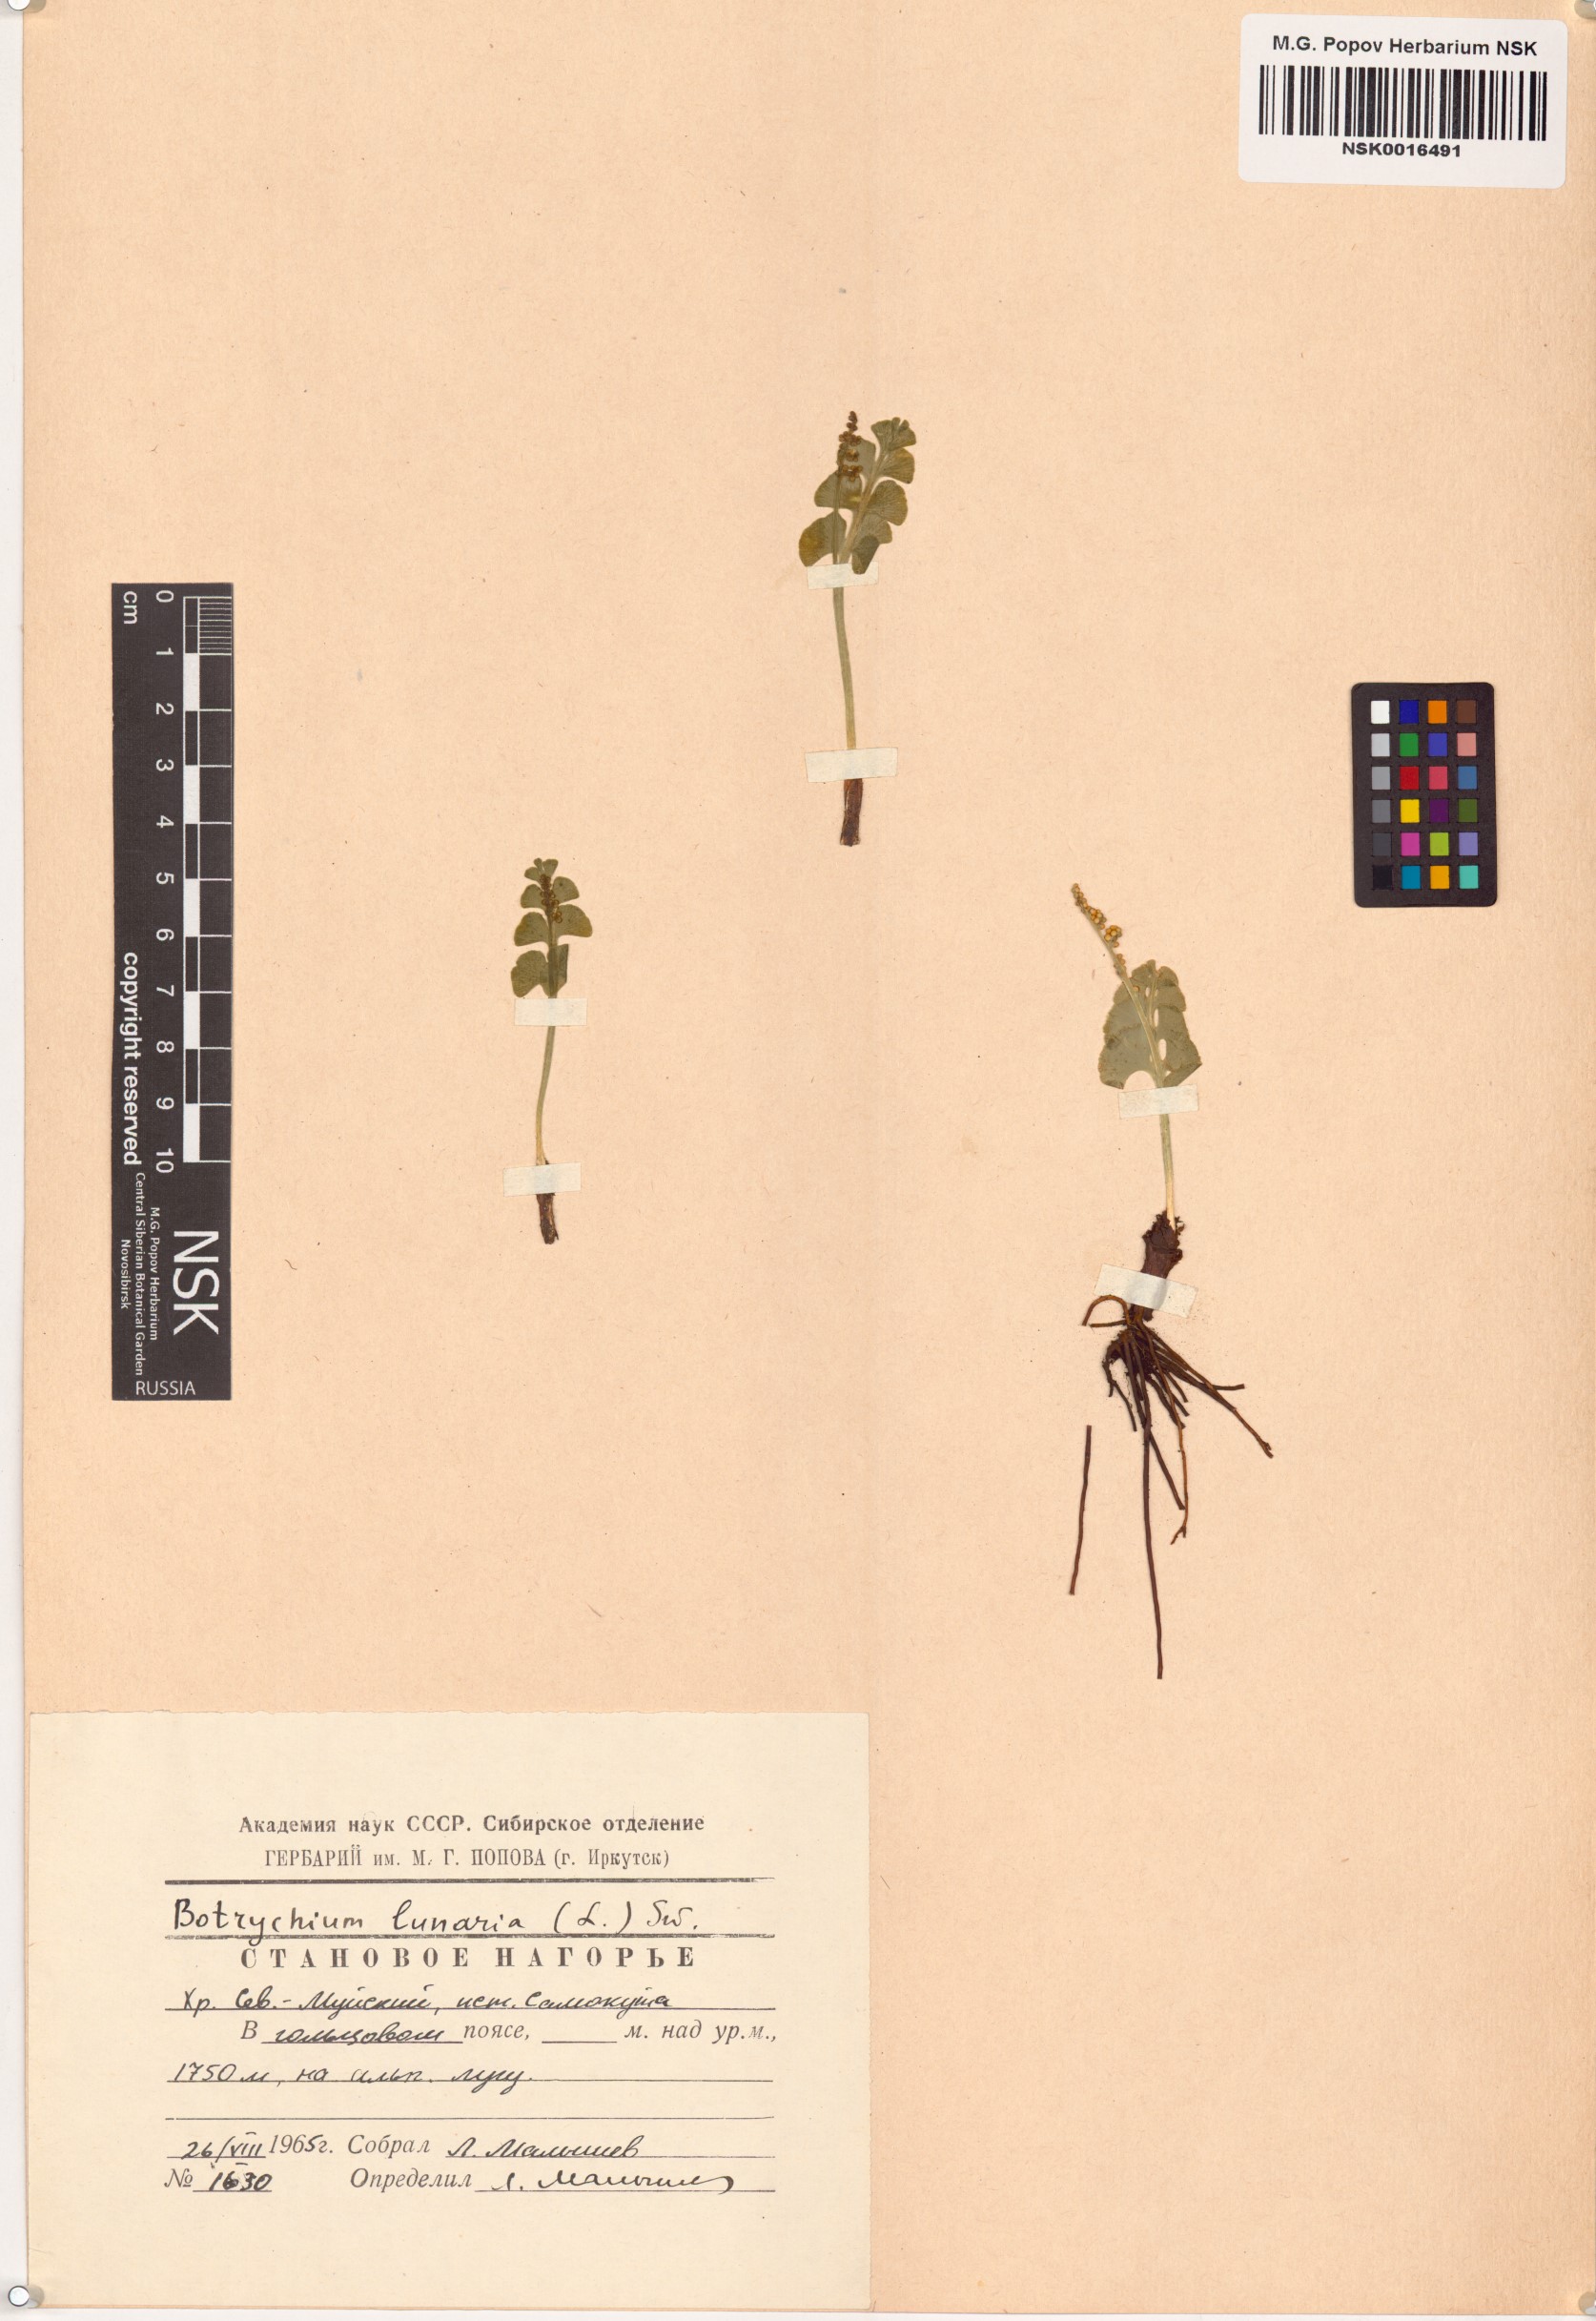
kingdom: Plantae
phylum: Tracheophyta
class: Polypodiopsida
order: Ophioglossales
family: Ophioglossaceae
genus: Botrychium
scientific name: Botrychium lunaria
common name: Moonwort
